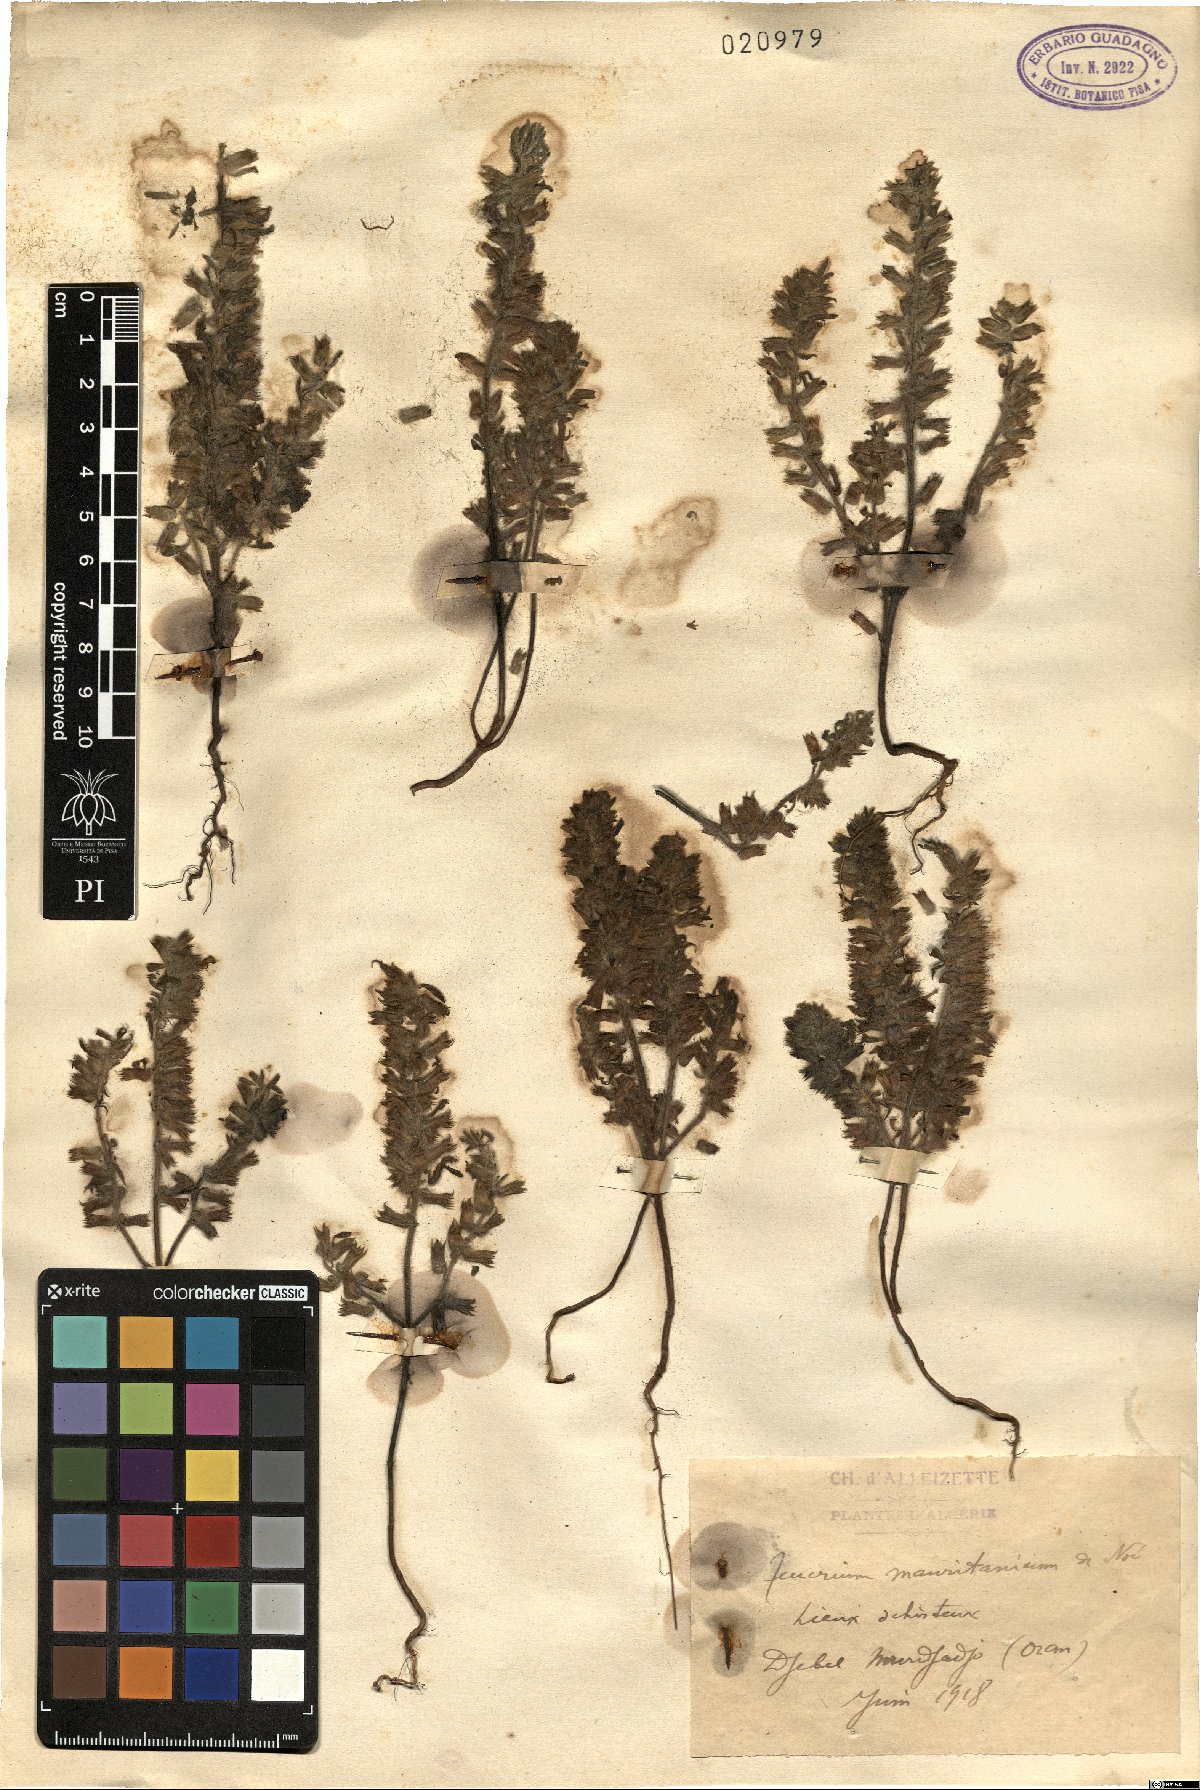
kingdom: Plantae
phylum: Tracheophyta
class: Magnoliopsida
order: Lamiales
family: Lamiaceae
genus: Teucrium
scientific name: Teucrium maghrebinum
